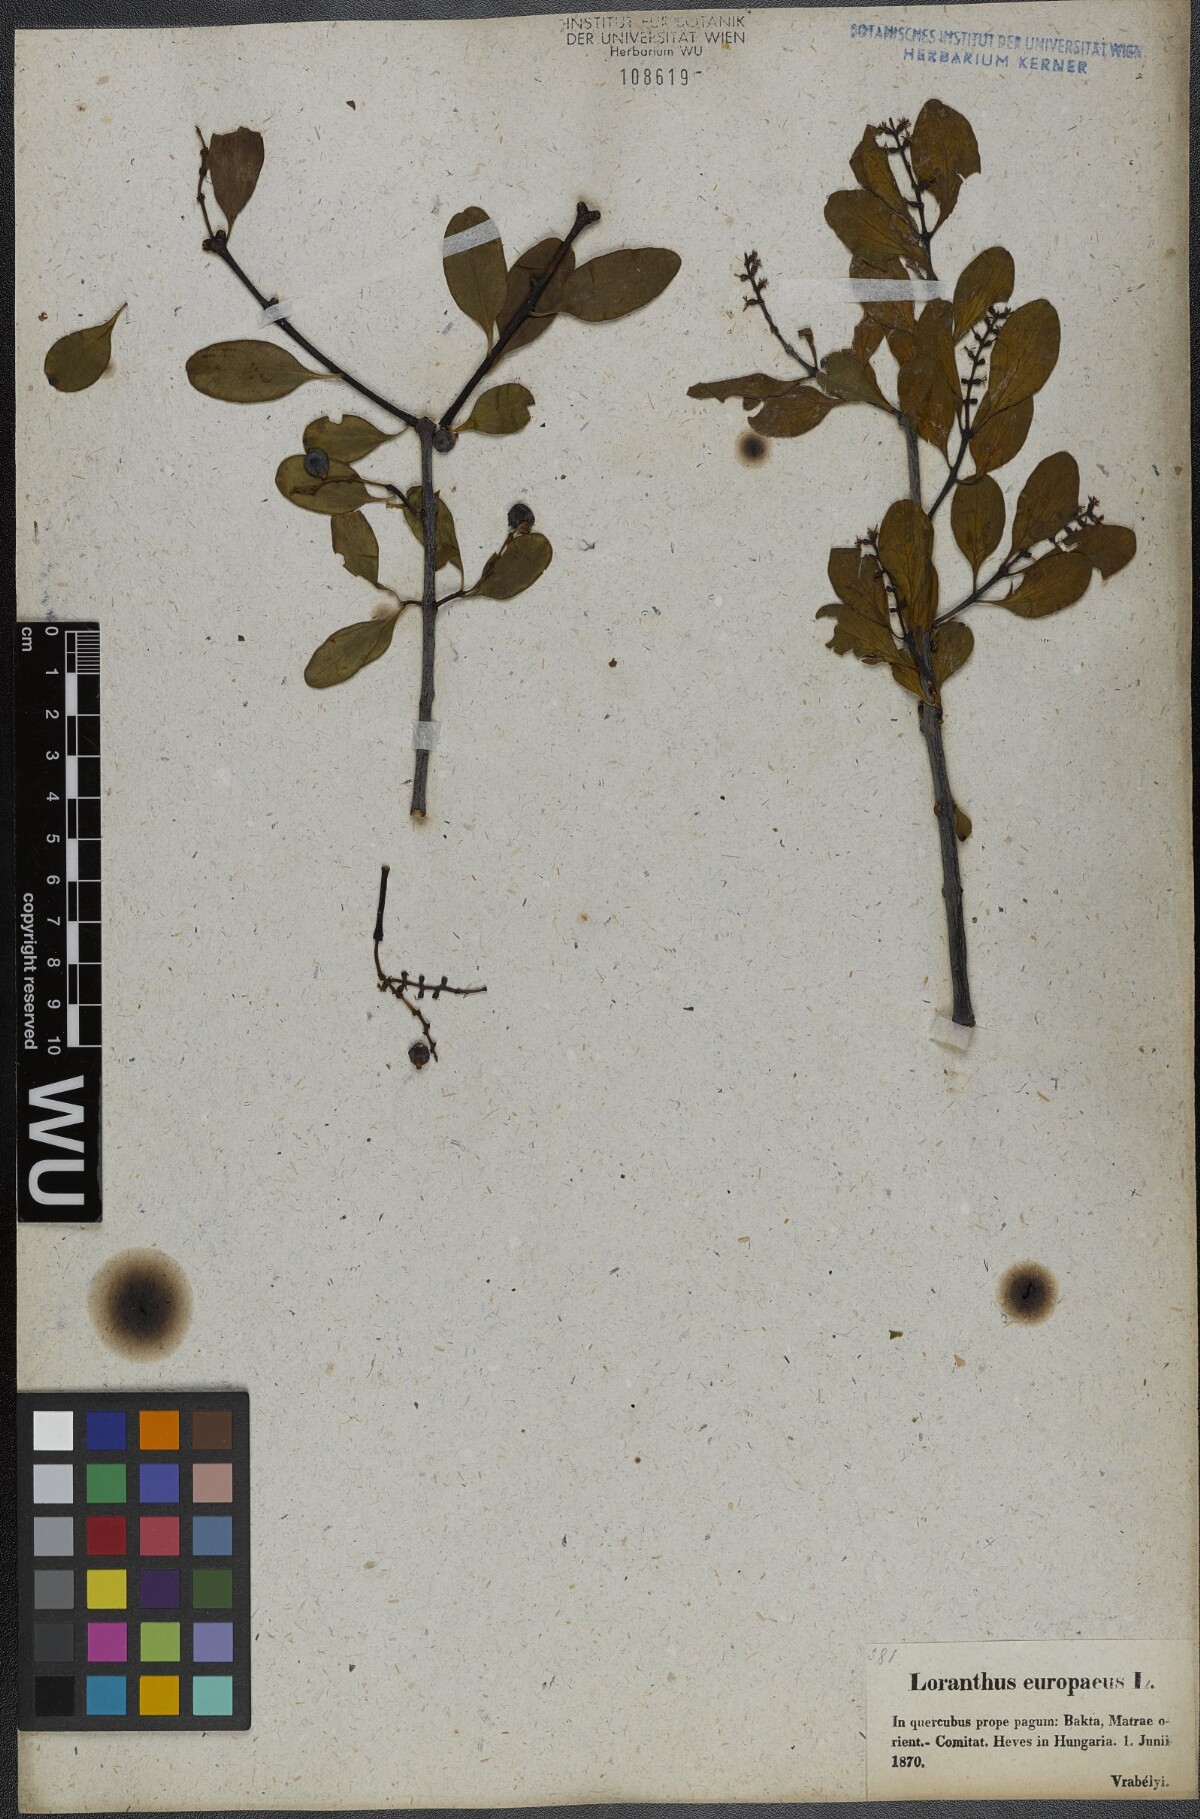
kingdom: Plantae
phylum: Tracheophyta
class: Magnoliopsida
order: Santalales
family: Loranthaceae
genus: Loranthus
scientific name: Loranthus europaeus
